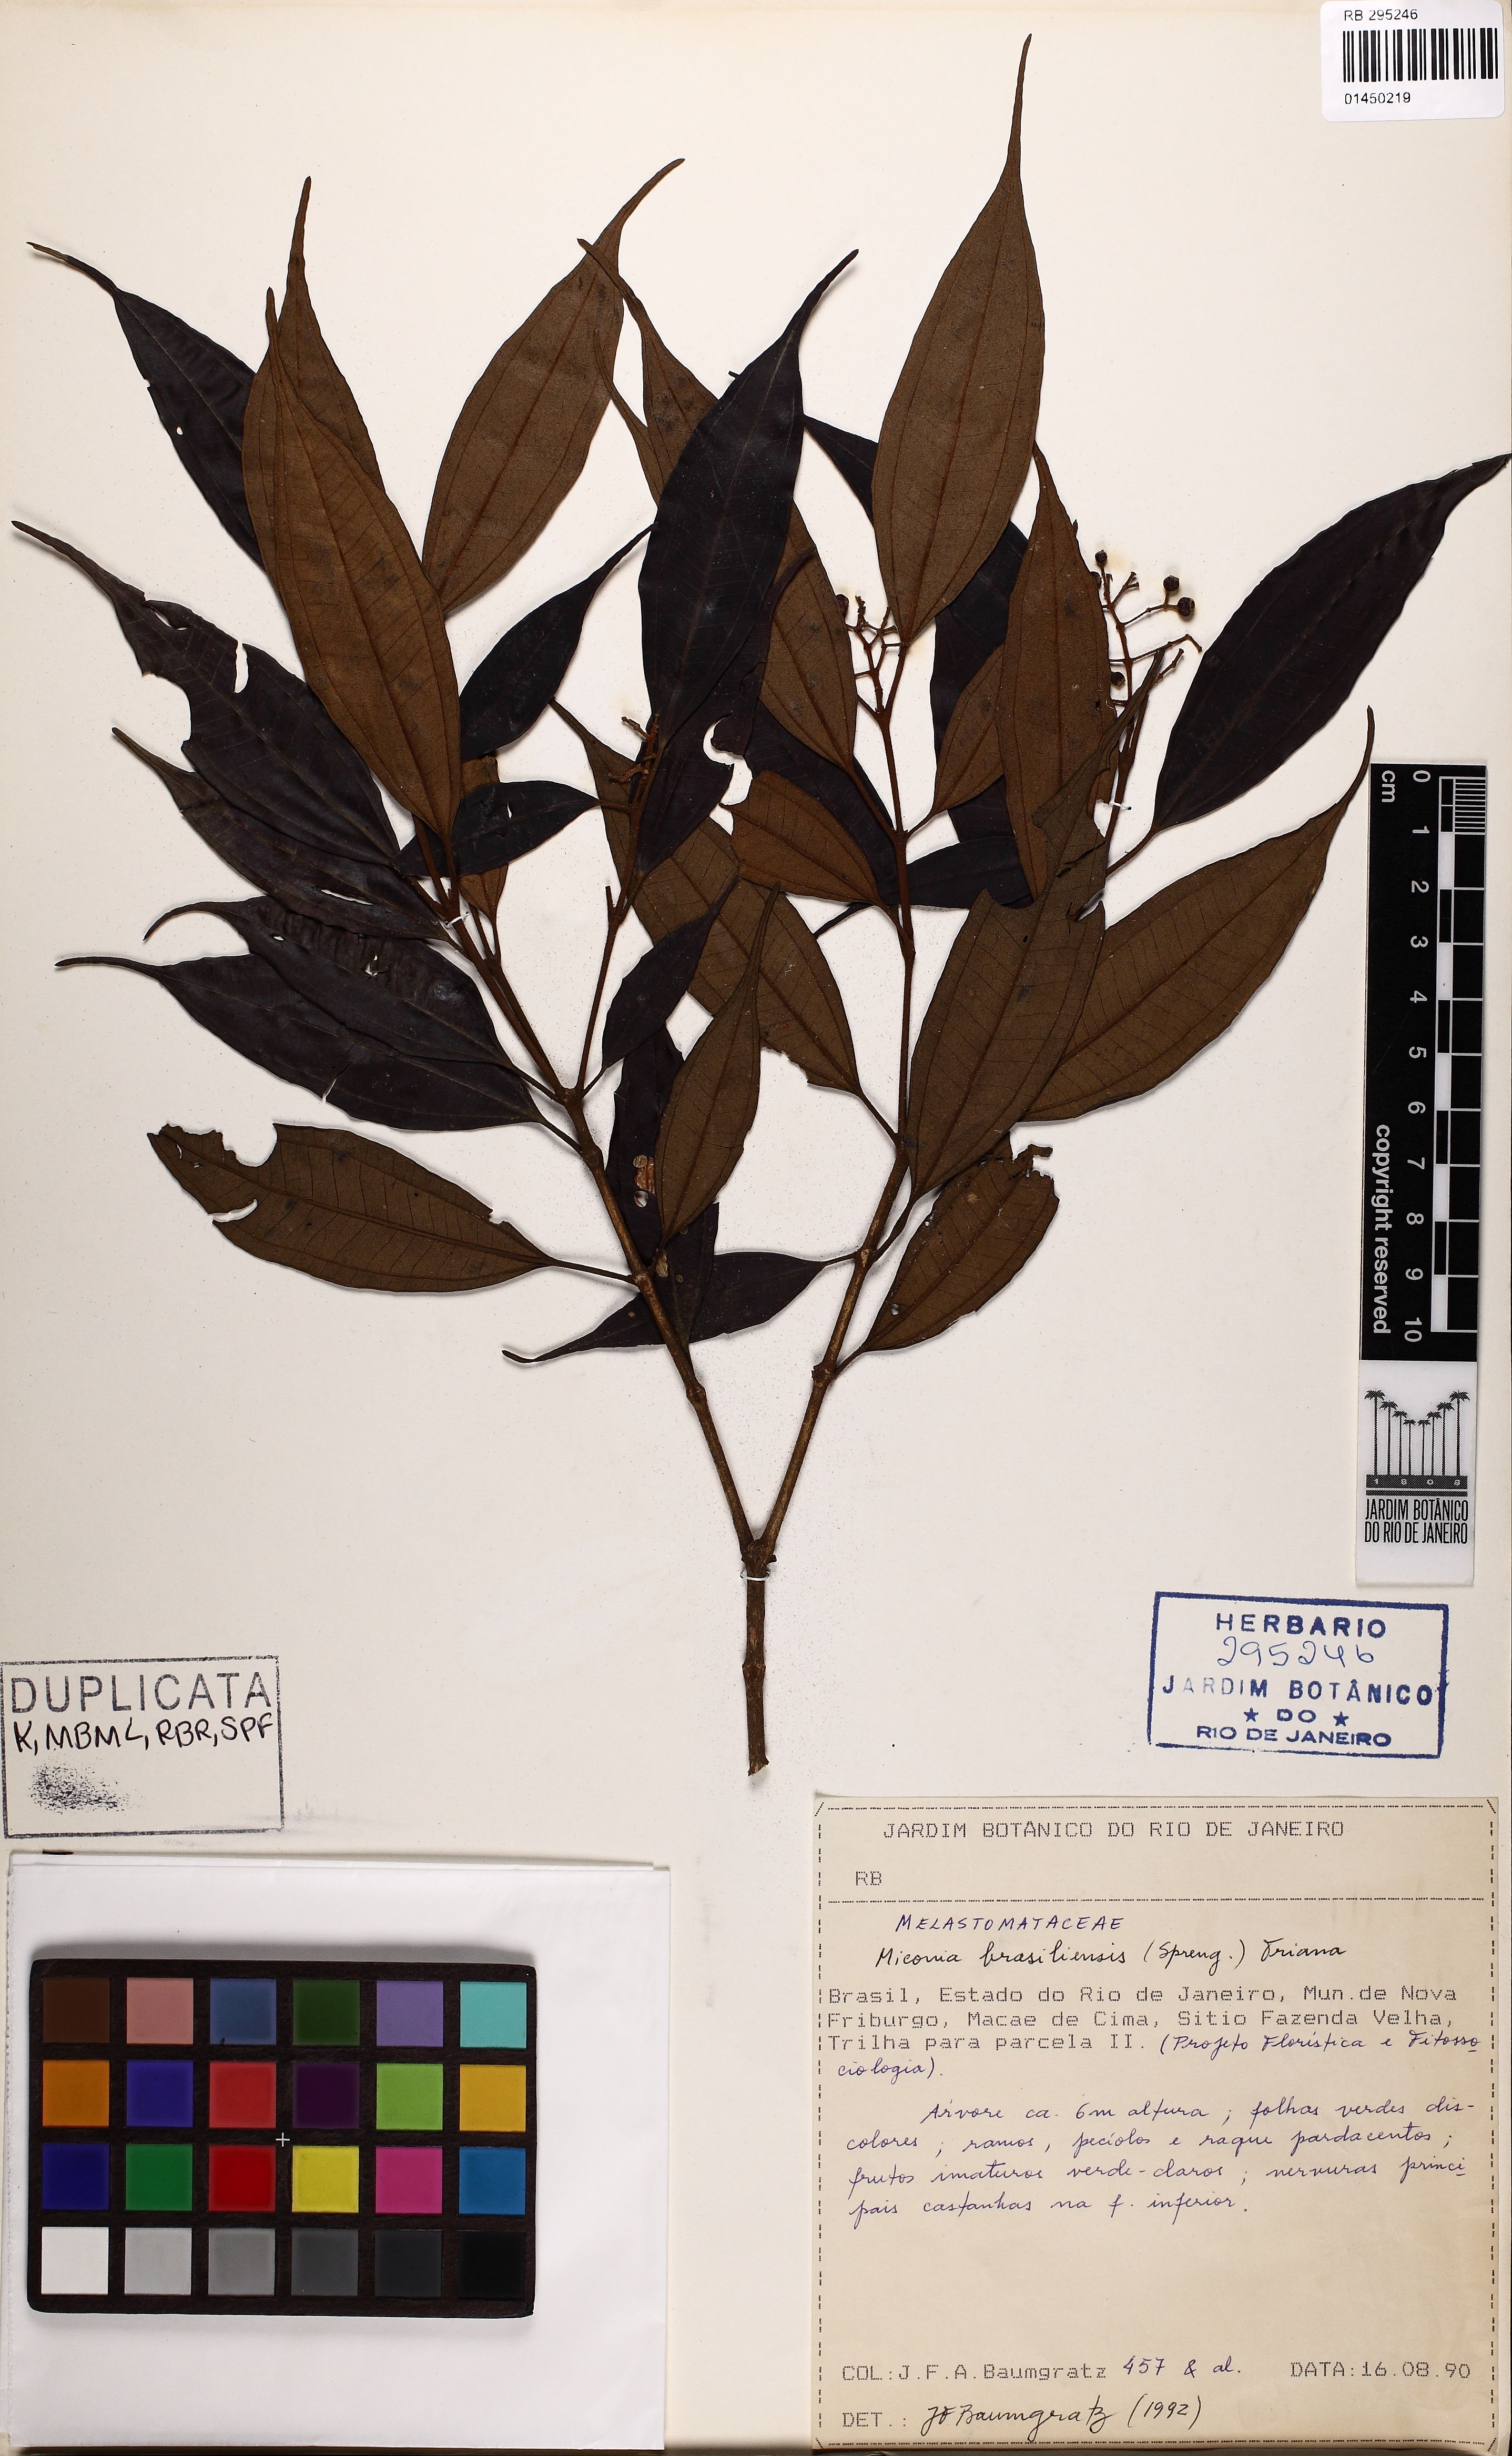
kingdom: Plantae
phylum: Tracheophyta
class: Magnoliopsida
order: Myrtales
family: Melastomataceae
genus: Miconia
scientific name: Miconia brasiliensis
